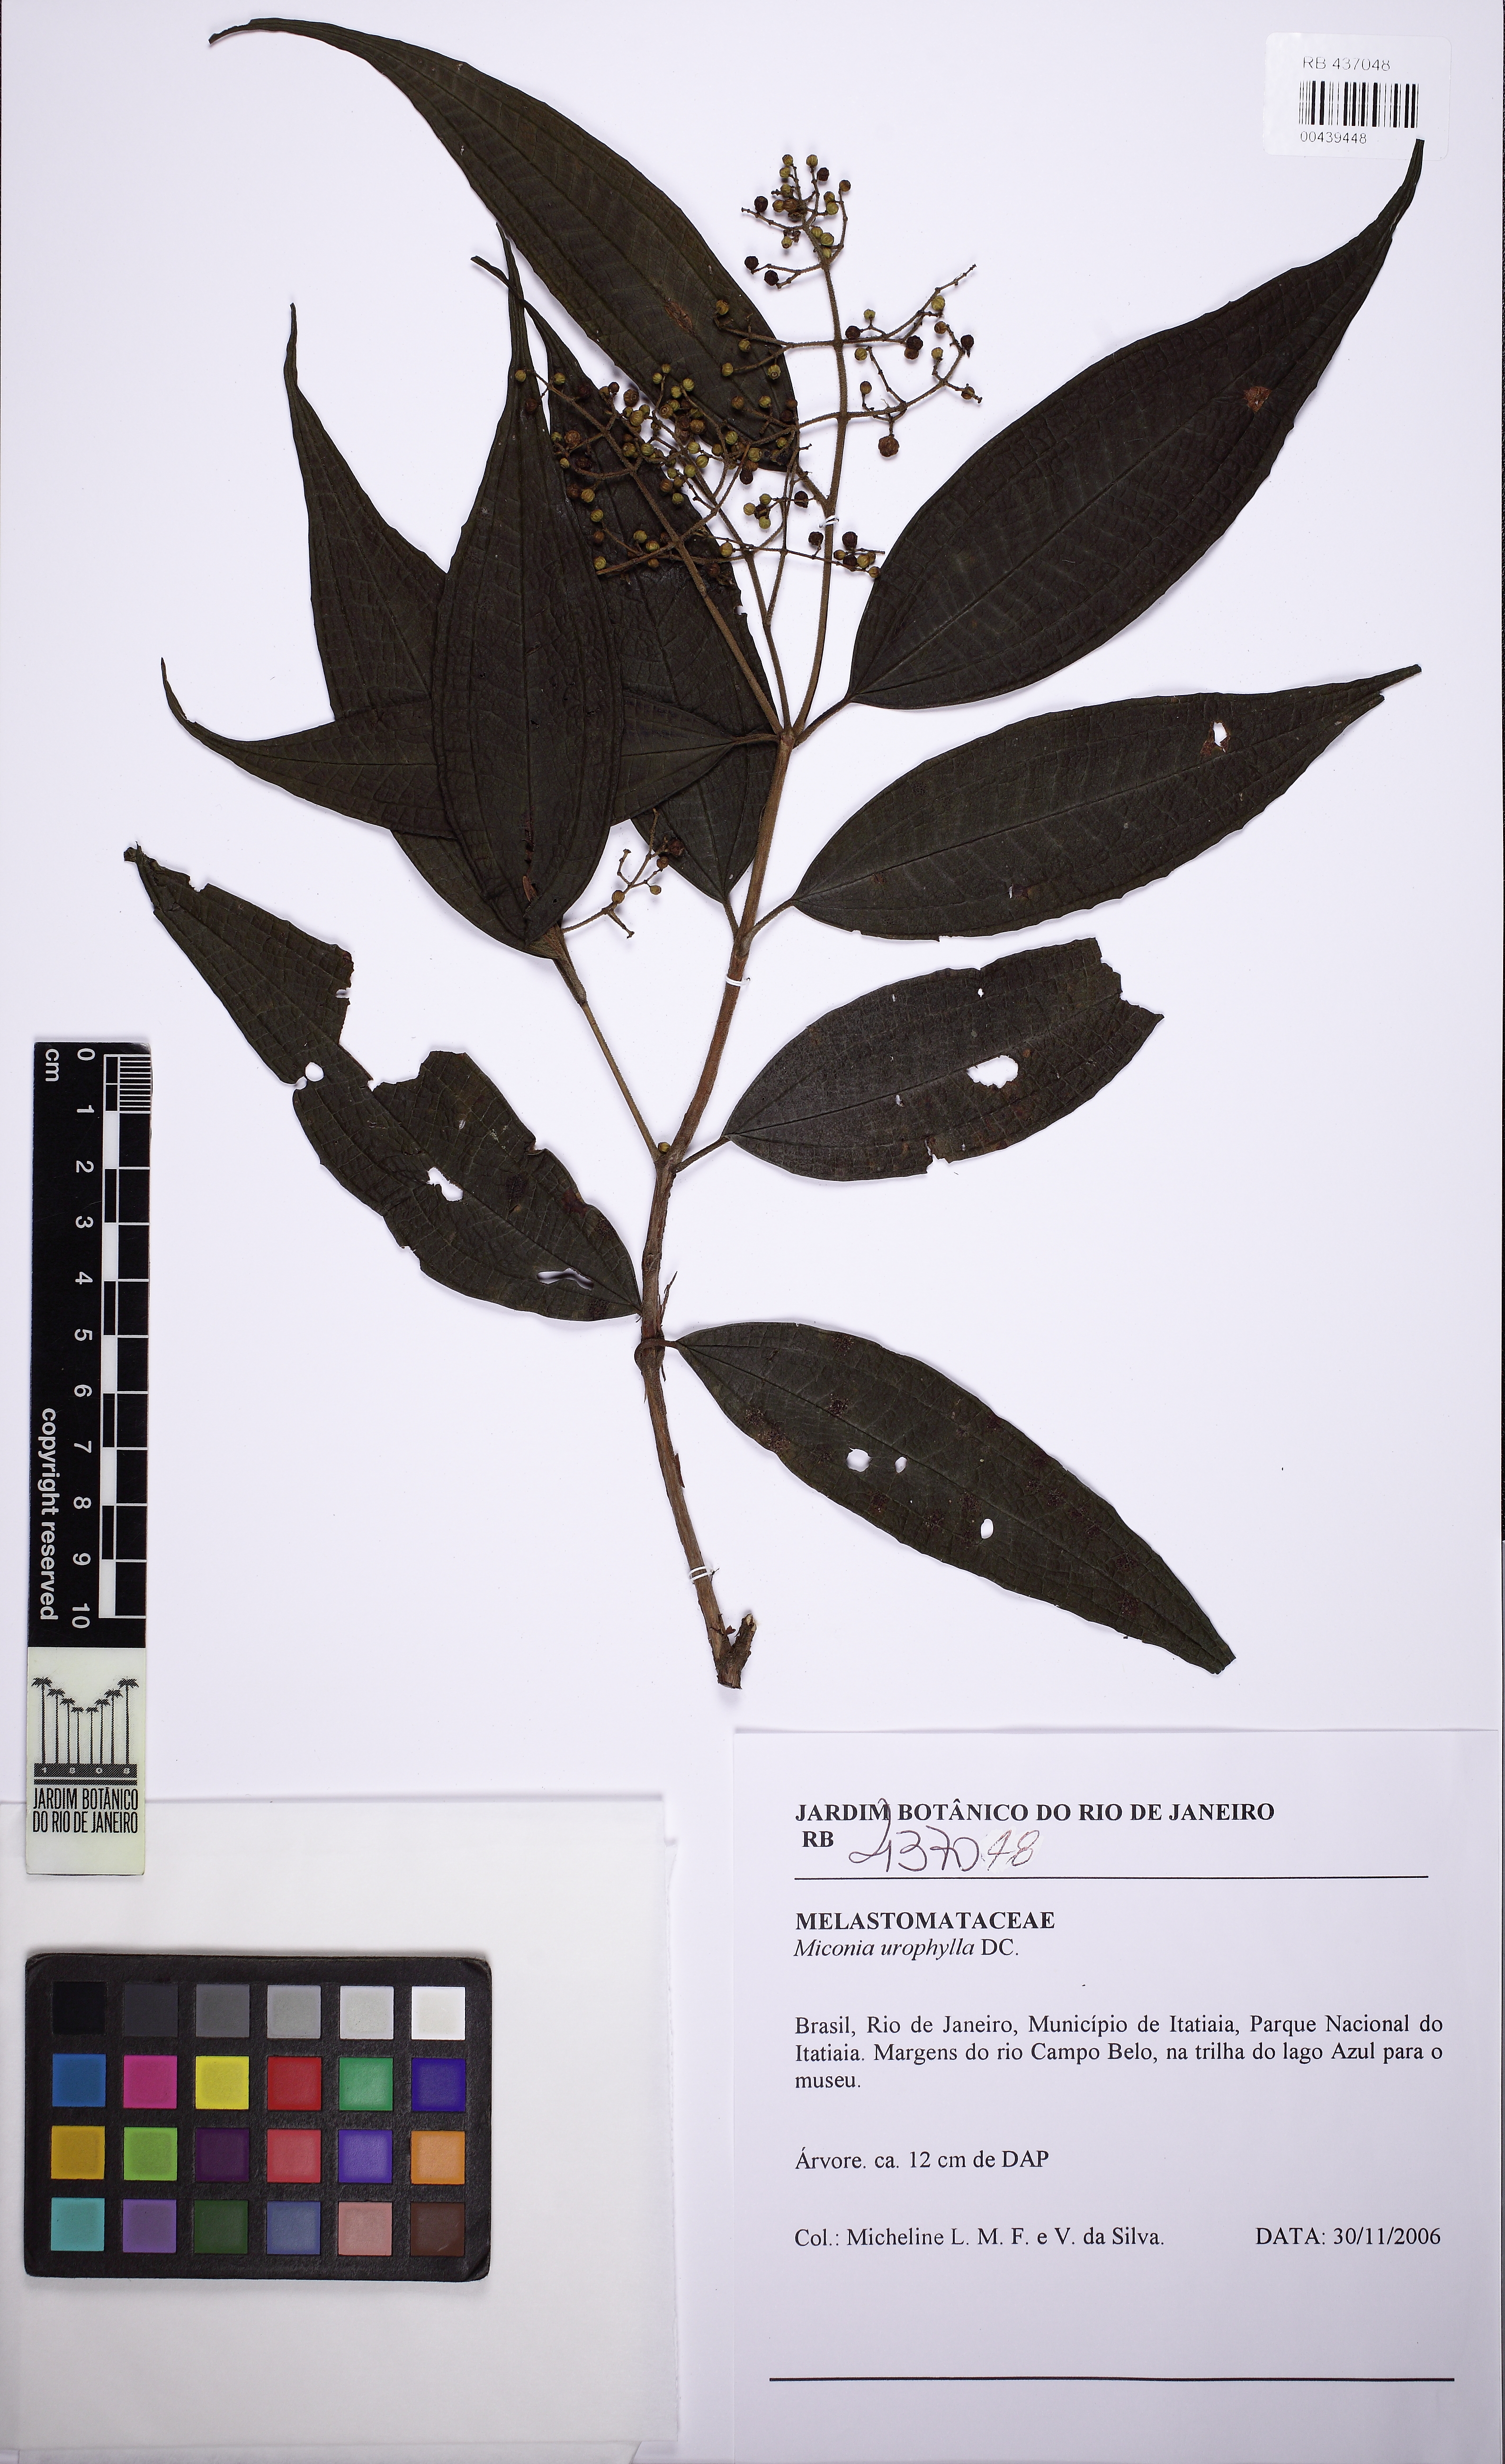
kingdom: Plantae
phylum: Tracheophyta
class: Magnoliopsida
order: Myrtales
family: Melastomataceae
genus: Miconia
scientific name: Miconia urophylla
